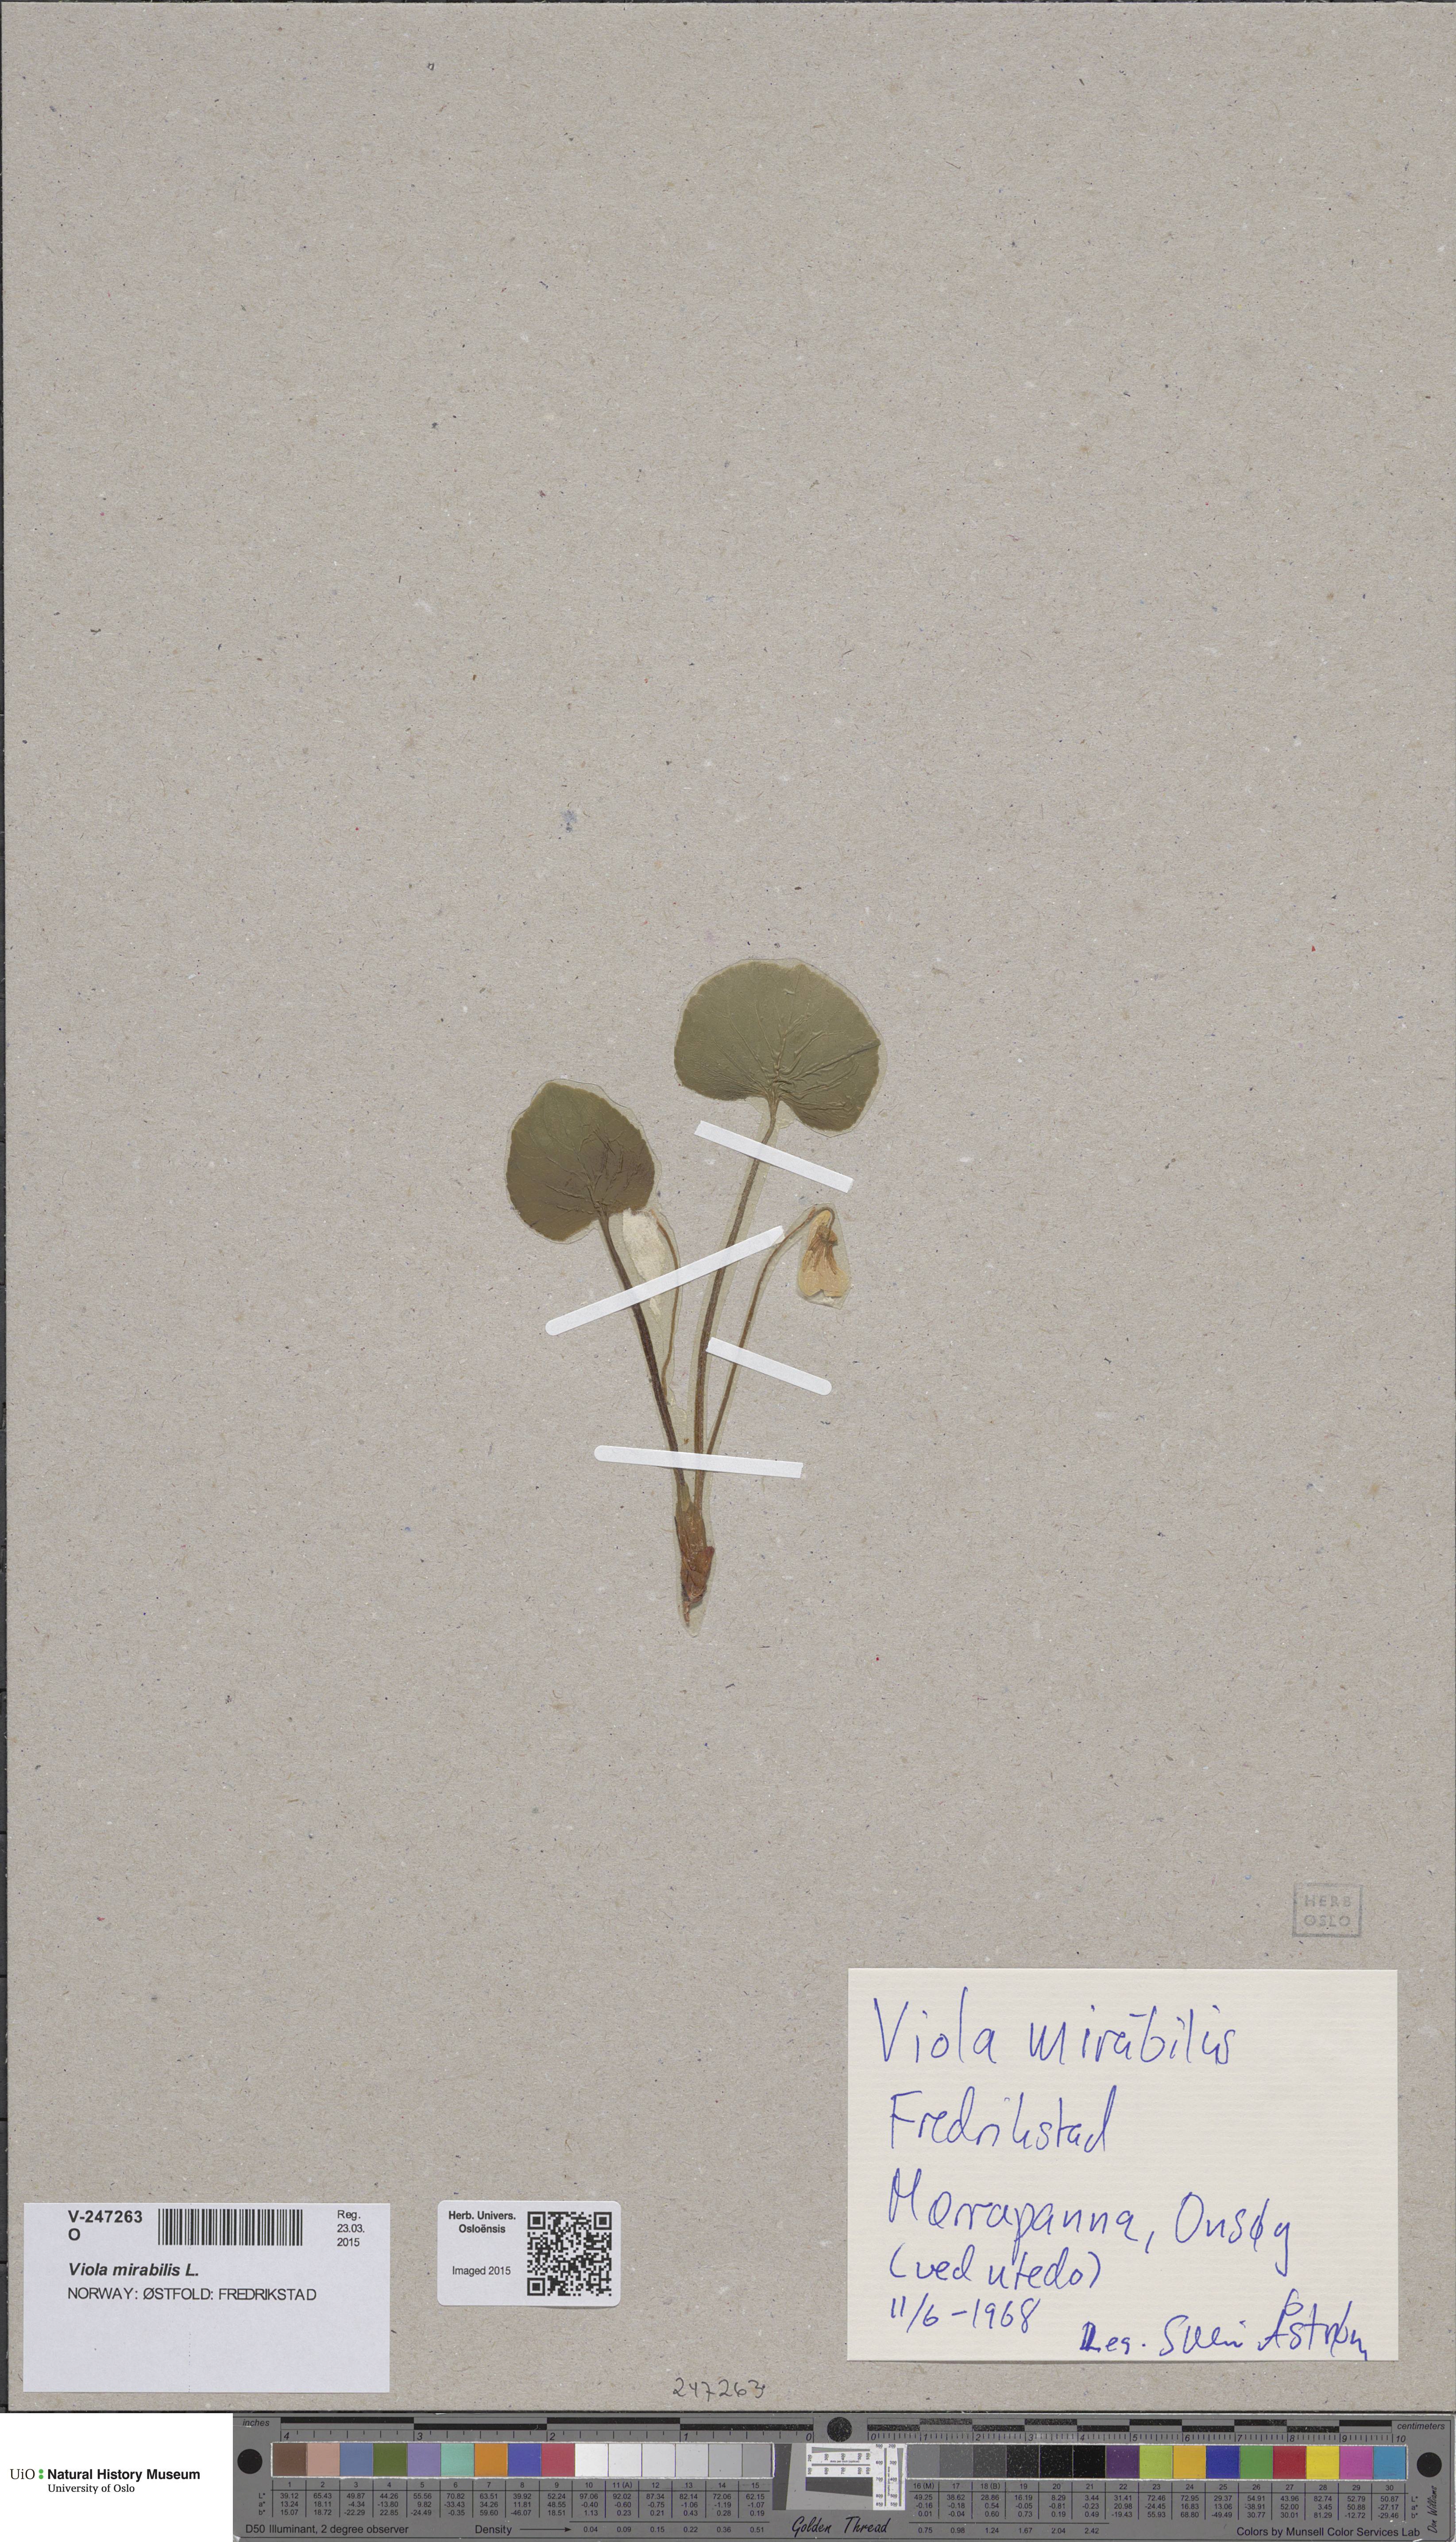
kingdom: Plantae
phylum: Tracheophyta
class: Magnoliopsida
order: Malpighiales
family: Violaceae
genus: Viola
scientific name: Viola mirabilis
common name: Wonder violet
